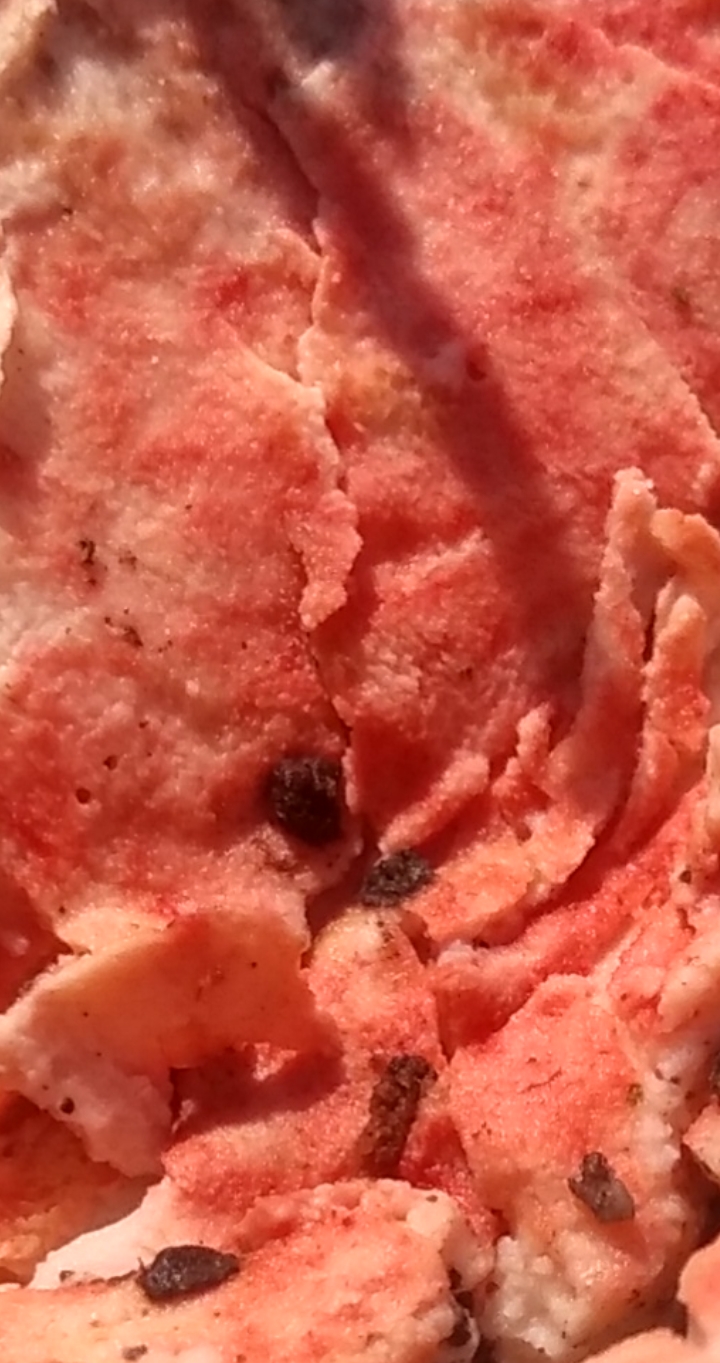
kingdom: Fungi
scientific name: Fungi
